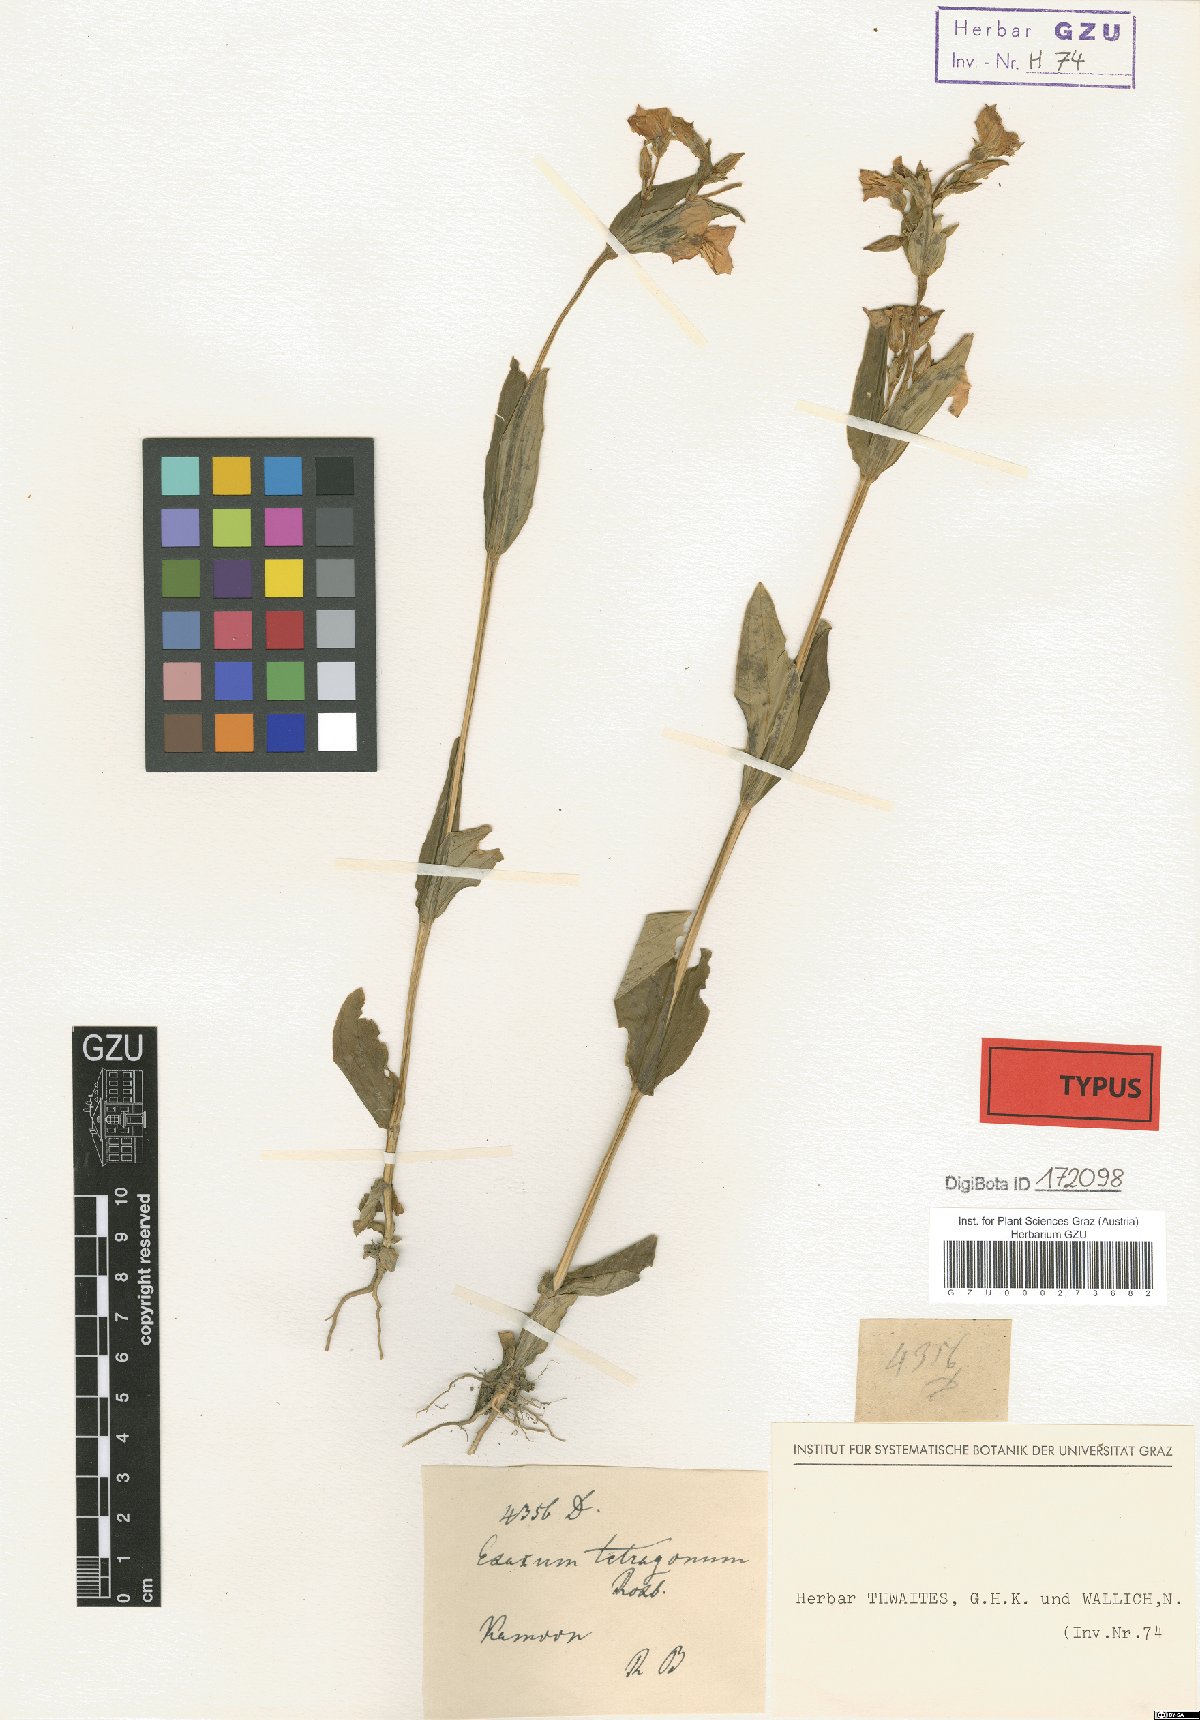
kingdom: Plantae
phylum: Tracheophyta
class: Magnoliopsida
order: Gentianales
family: Gentianaceae
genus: Exacum
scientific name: Exacum tetragonum
